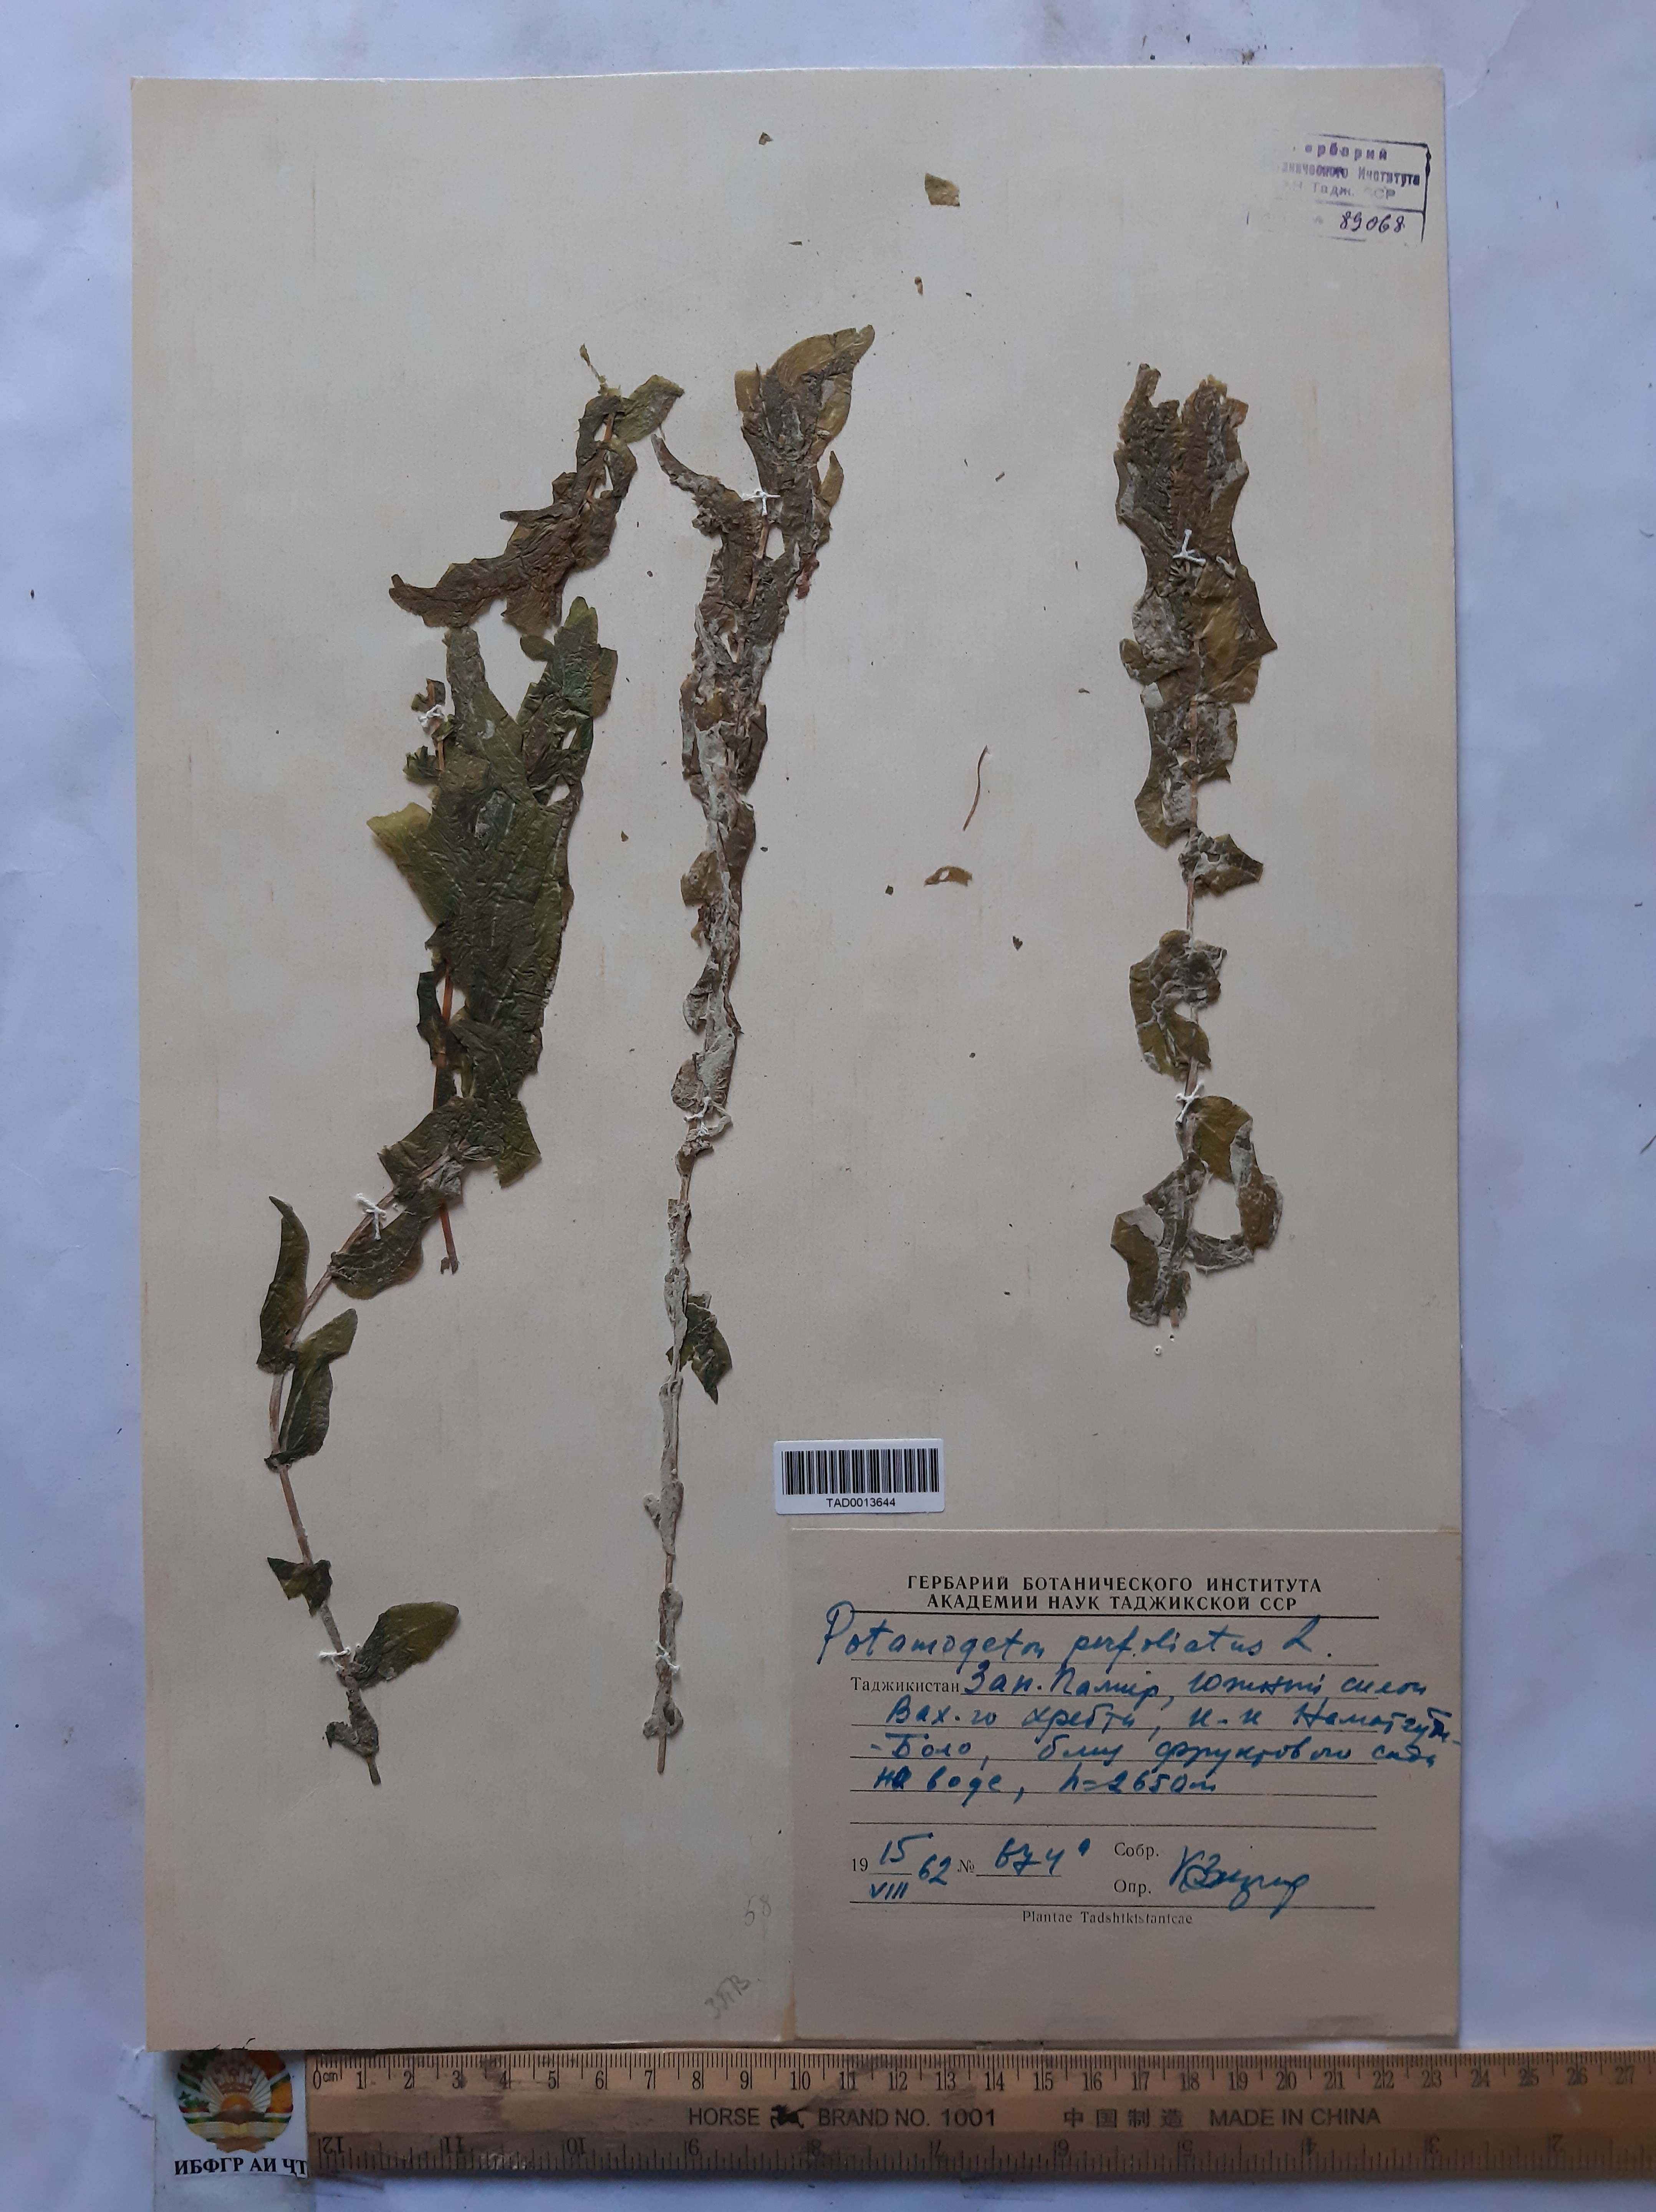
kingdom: Plantae
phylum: Tracheophyta
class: Liliopsida
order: Alismatales
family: Potamogetonaceae
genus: Potamogeton
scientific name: Potamogeton perfoliatus
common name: Perfoliate pondweed
